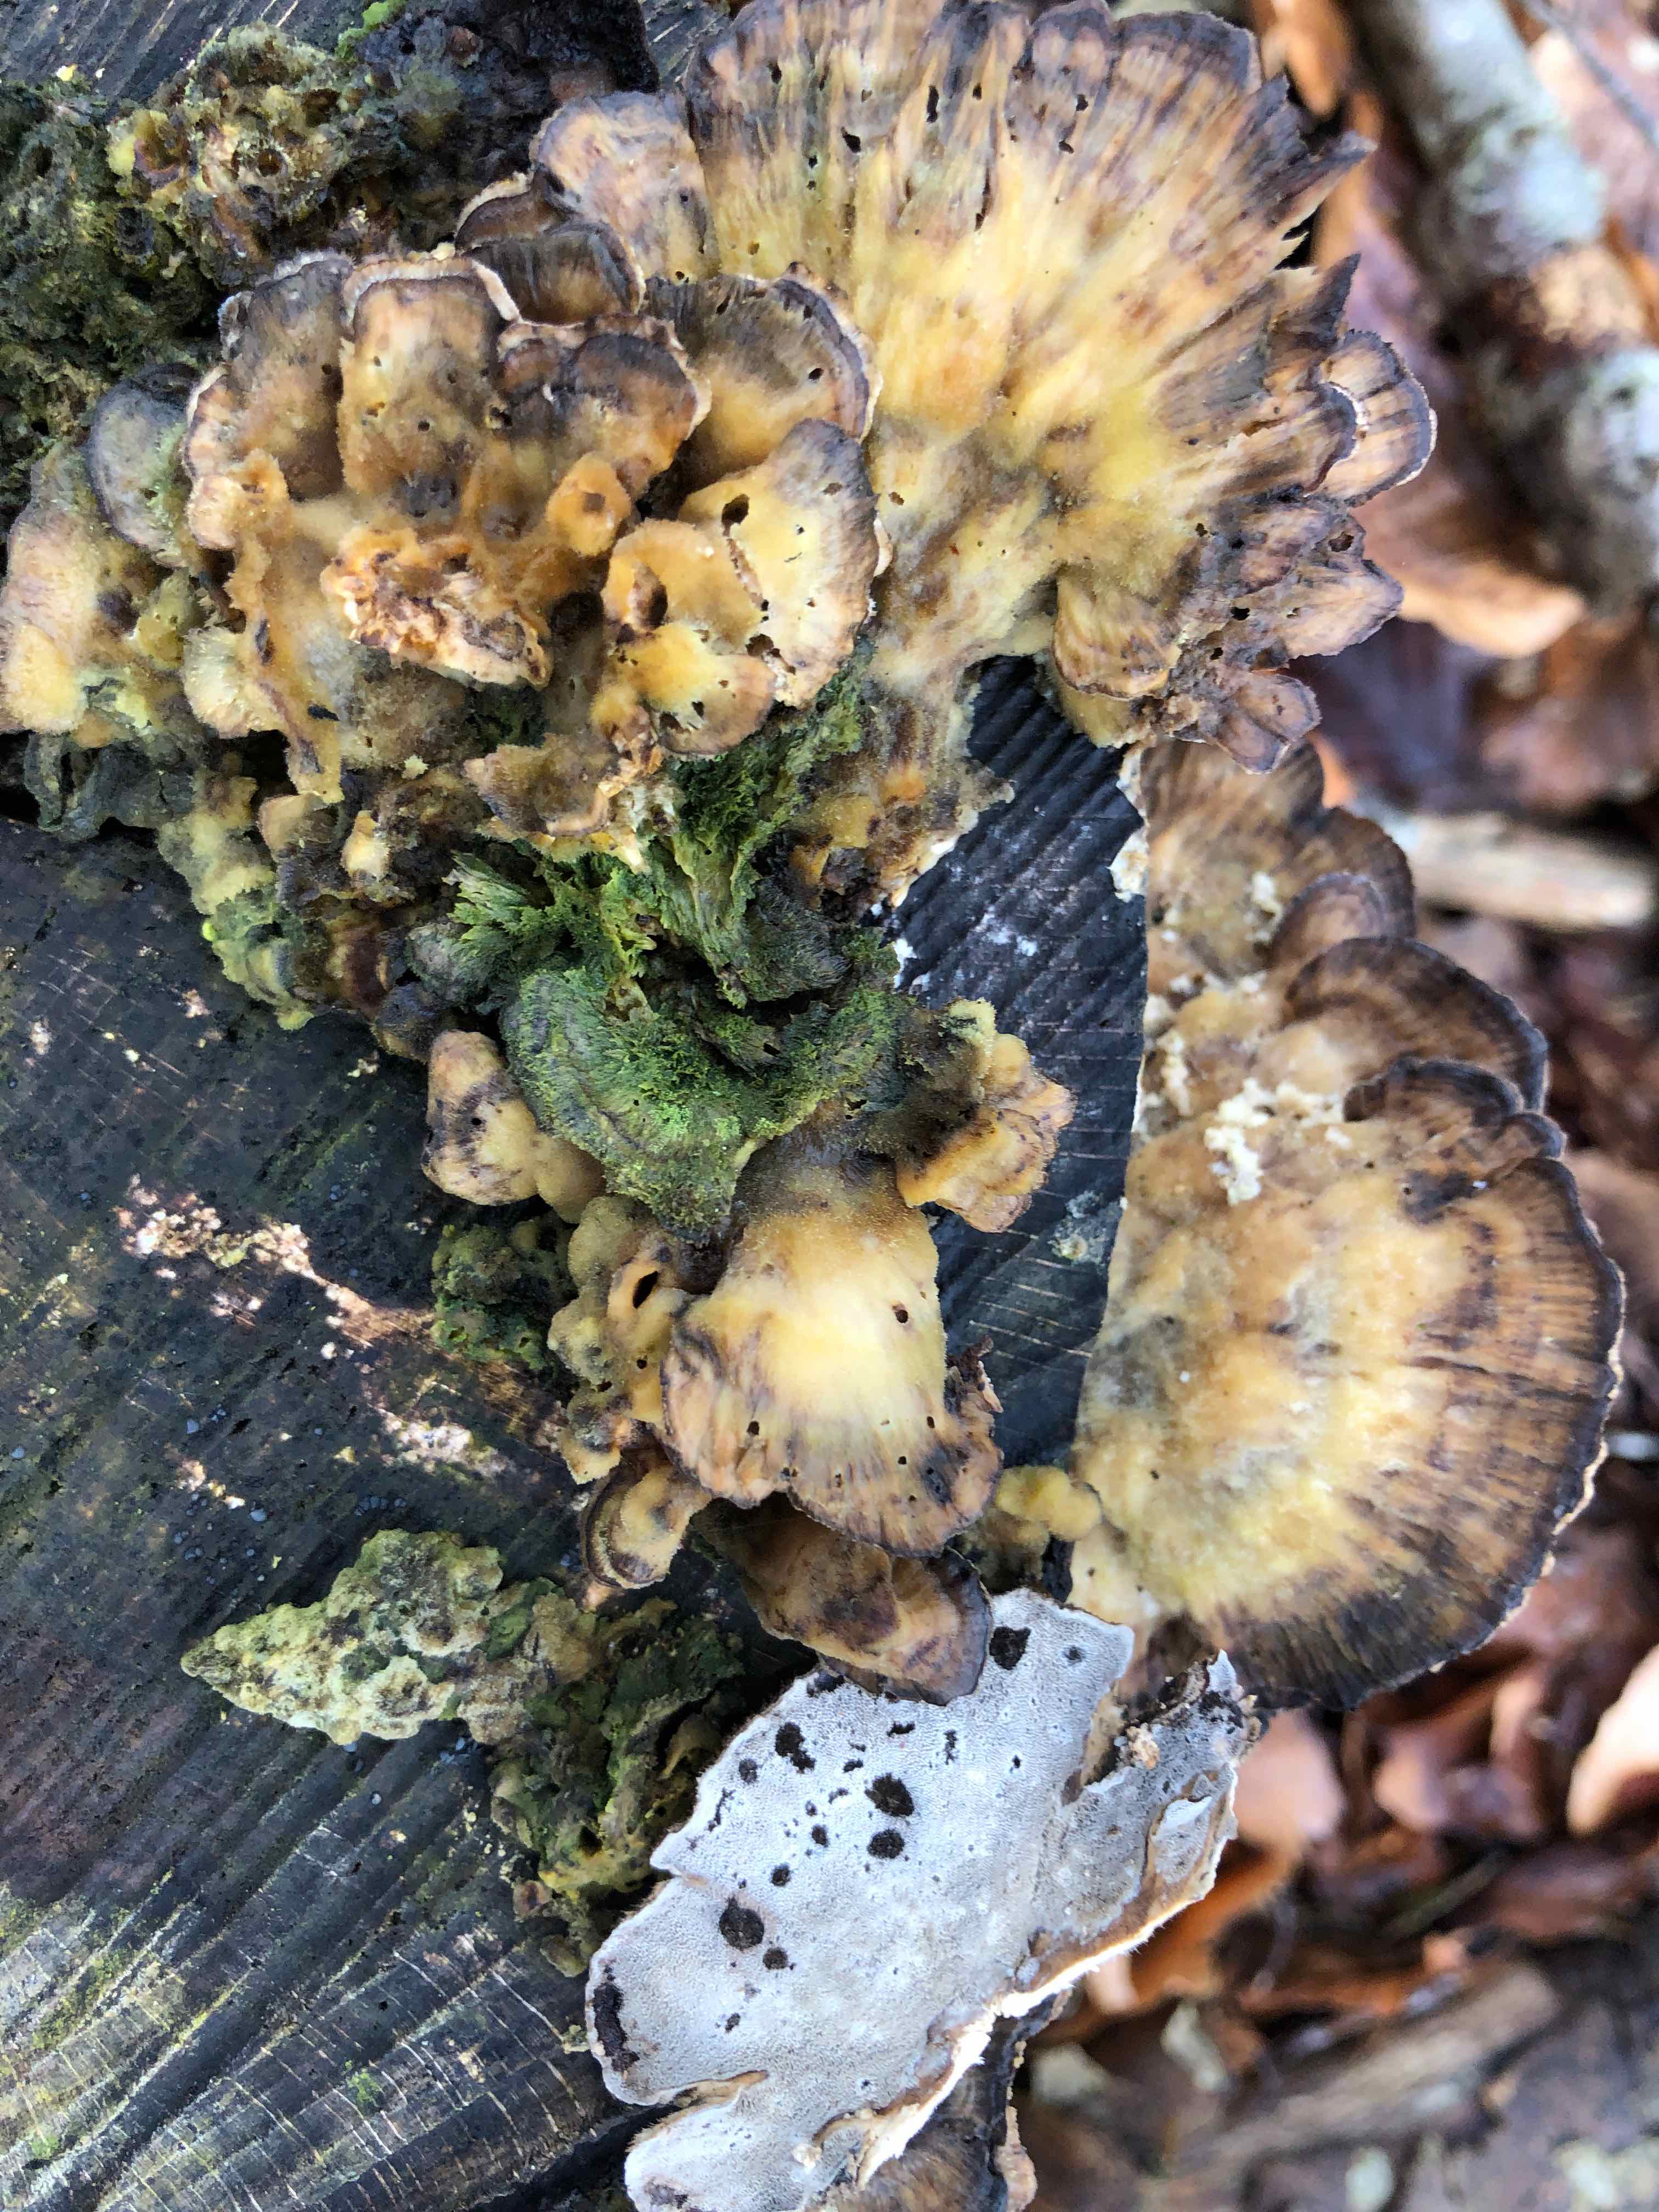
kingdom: Fungi
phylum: Basidiomycota
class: Agaricomycetes
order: Polyporales
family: Phanerochaetaceae
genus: Bjerkandera
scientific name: Bjerkandera adusta
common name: sveden sodporesvamp
